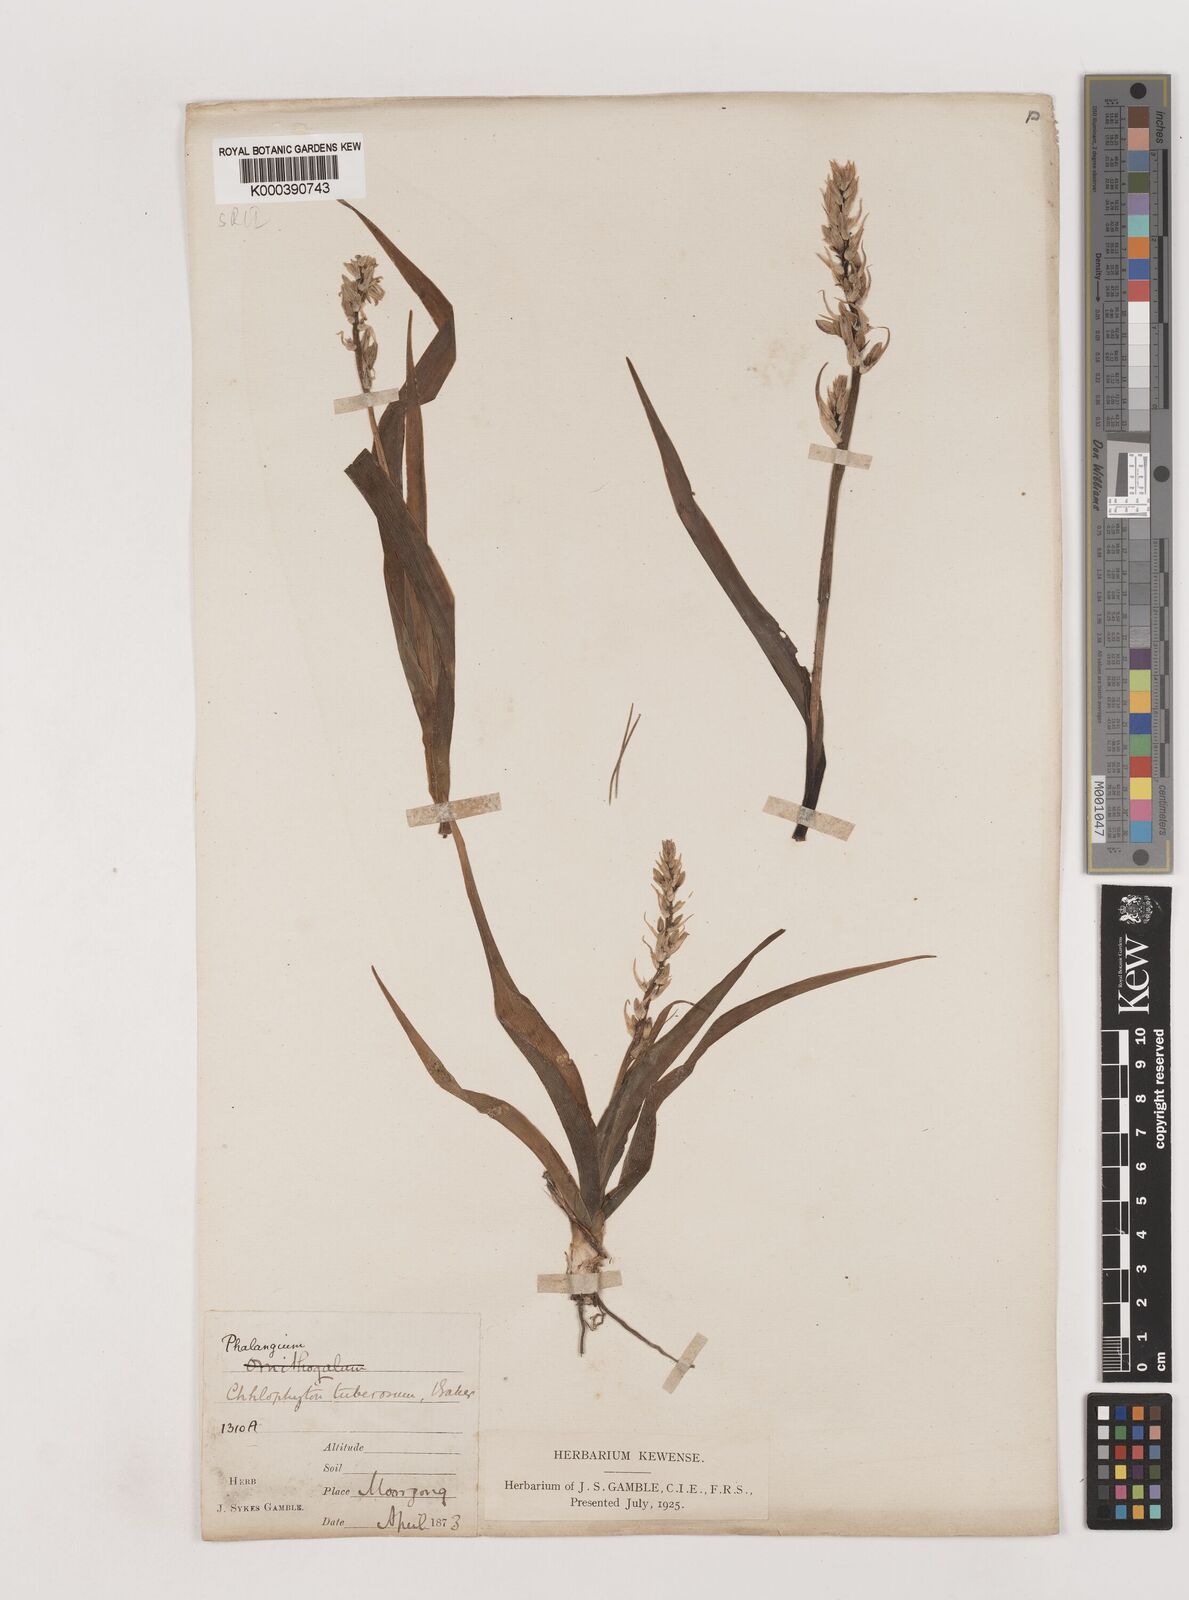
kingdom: Plantae
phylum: Tracheophyta
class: Liliopsida
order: Asparagales
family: Asparagaceae
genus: Chlorophytum
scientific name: Chlorophytum tuberosum
